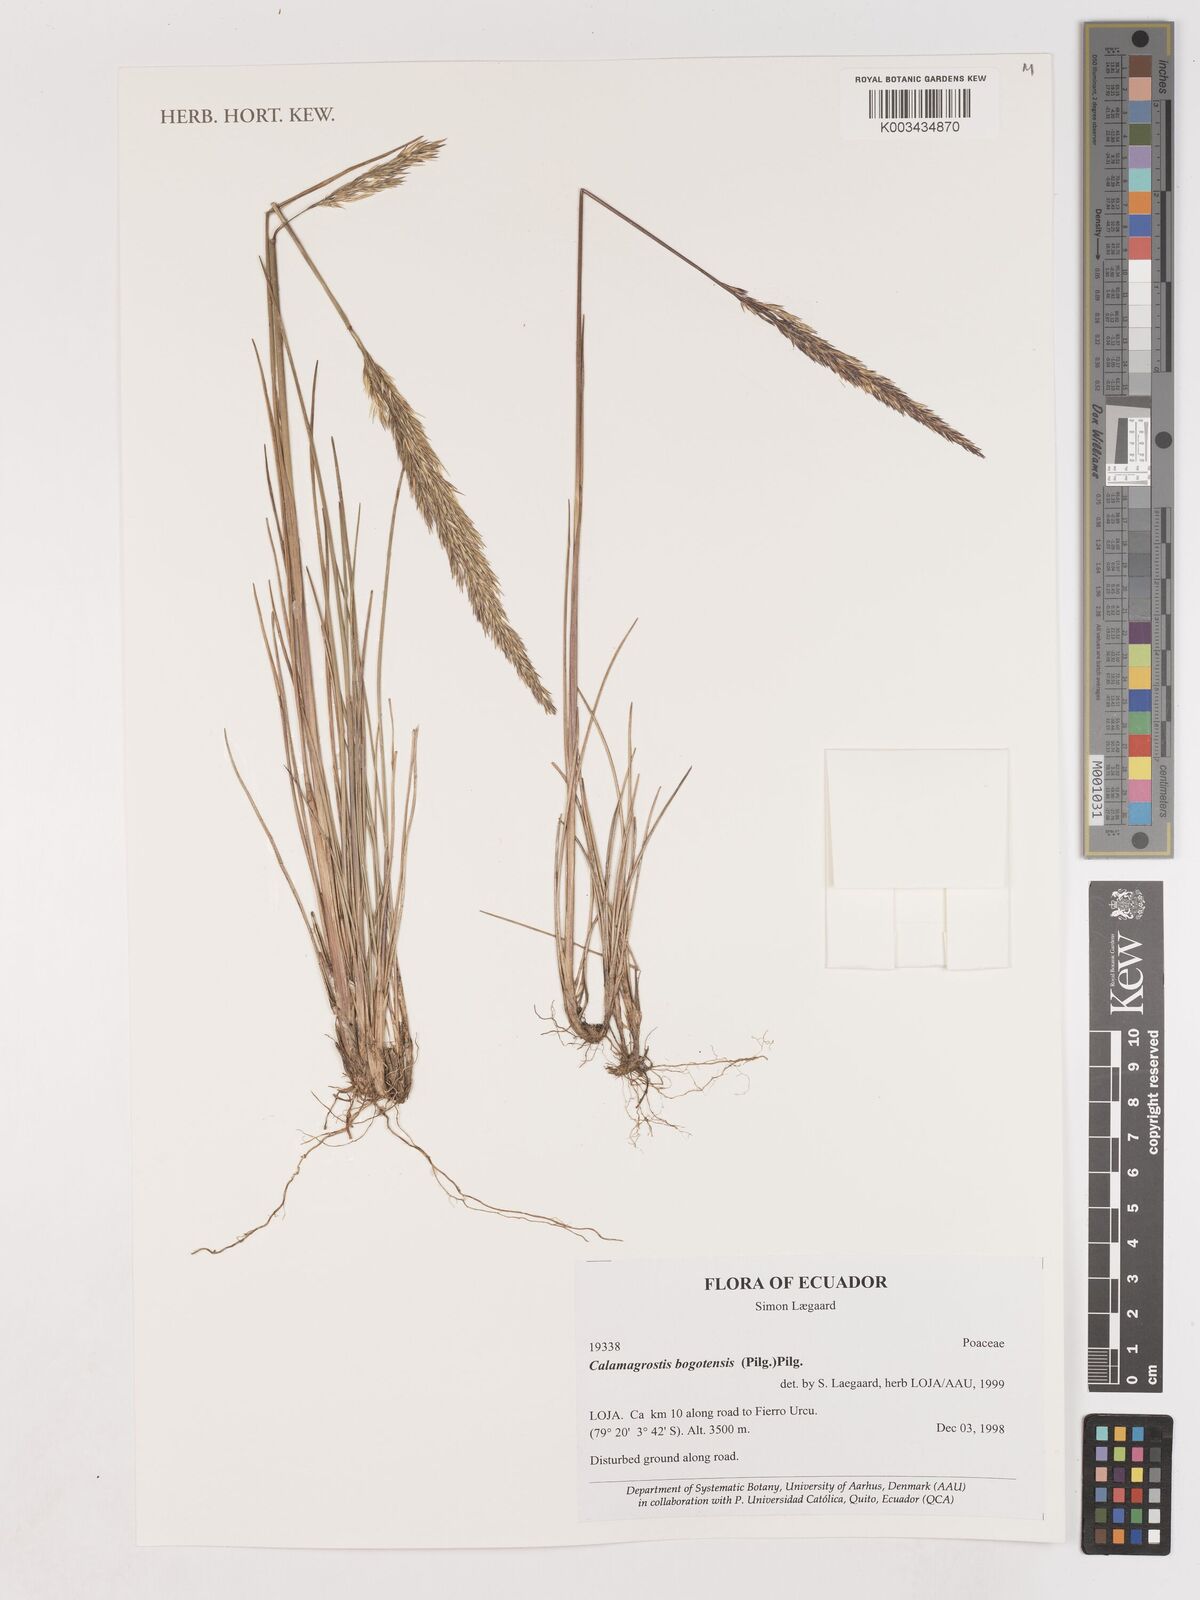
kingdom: Plantae
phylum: Tracheophyta
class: Liliopsida
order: Poales
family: Poaceae
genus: Calamagrostis
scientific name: Calamagrostis bogotensis
